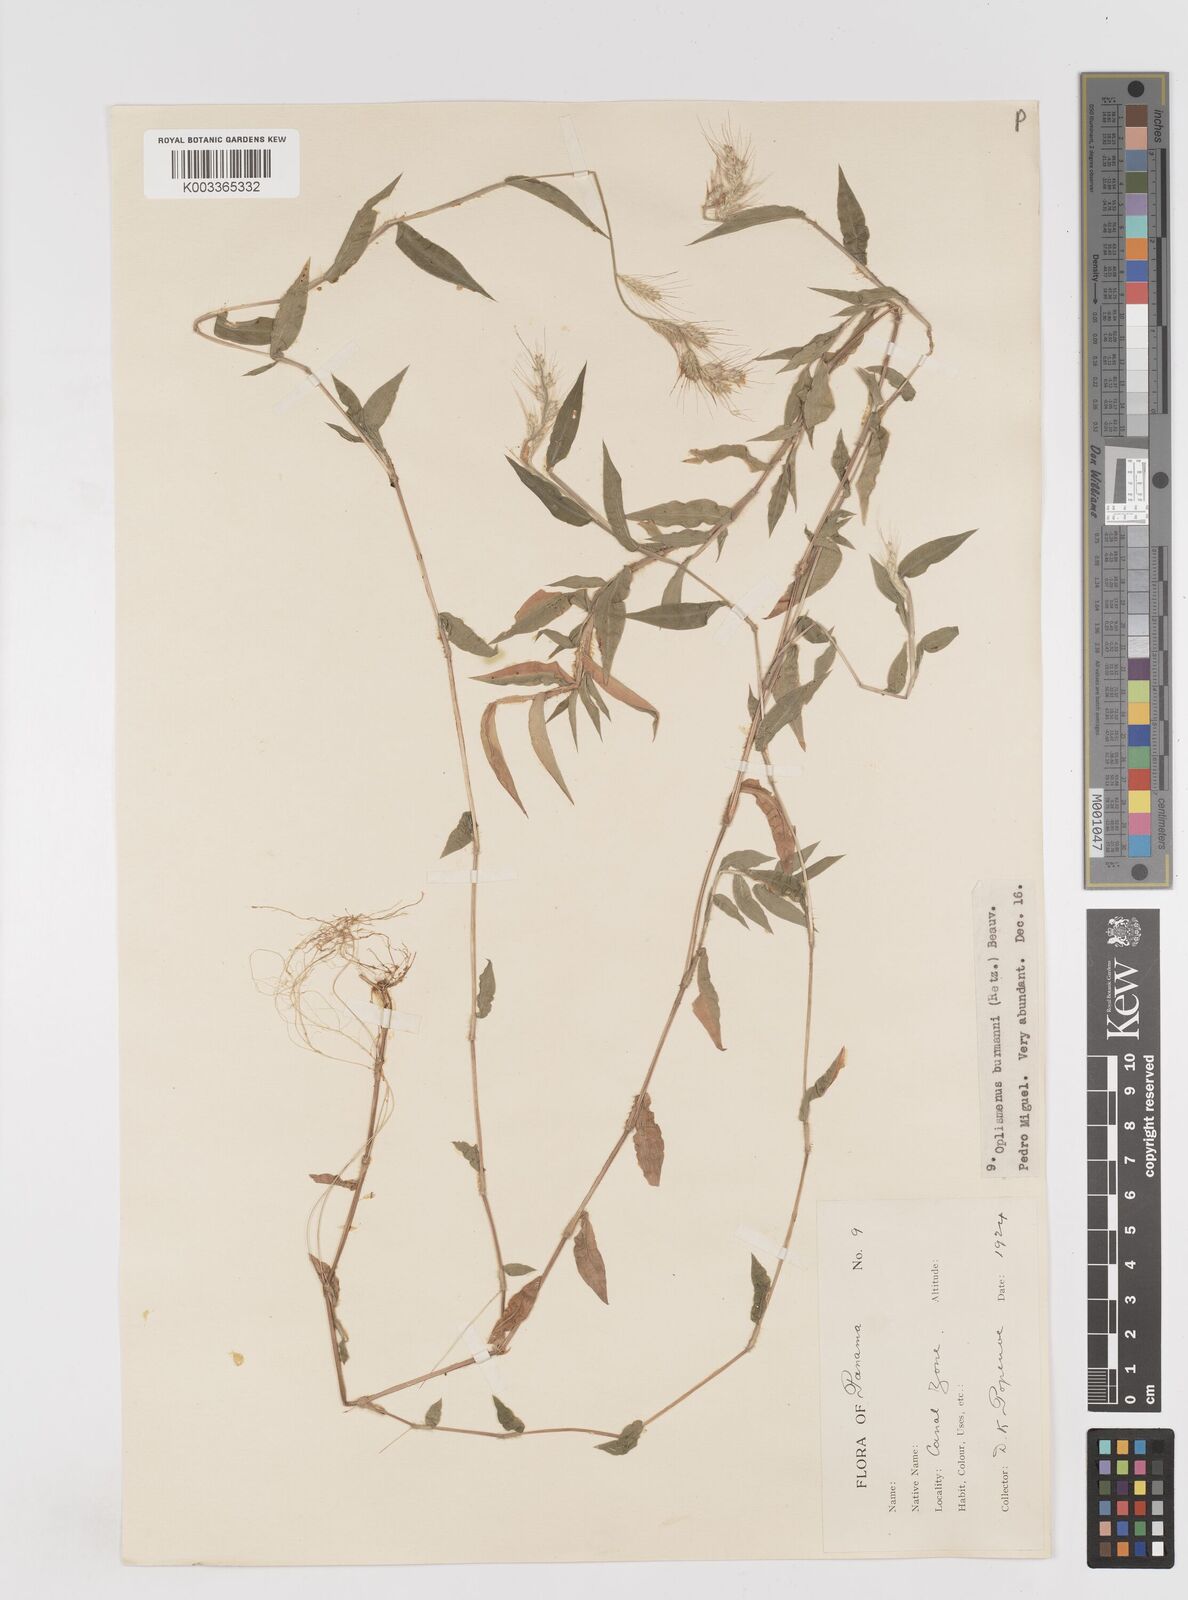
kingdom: Plantae
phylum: Tracheophyta
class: Liliopsida
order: Poales
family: Poaceae
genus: Oplismenus
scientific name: Oplismenus burmanni
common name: Burmann's basketgrass
